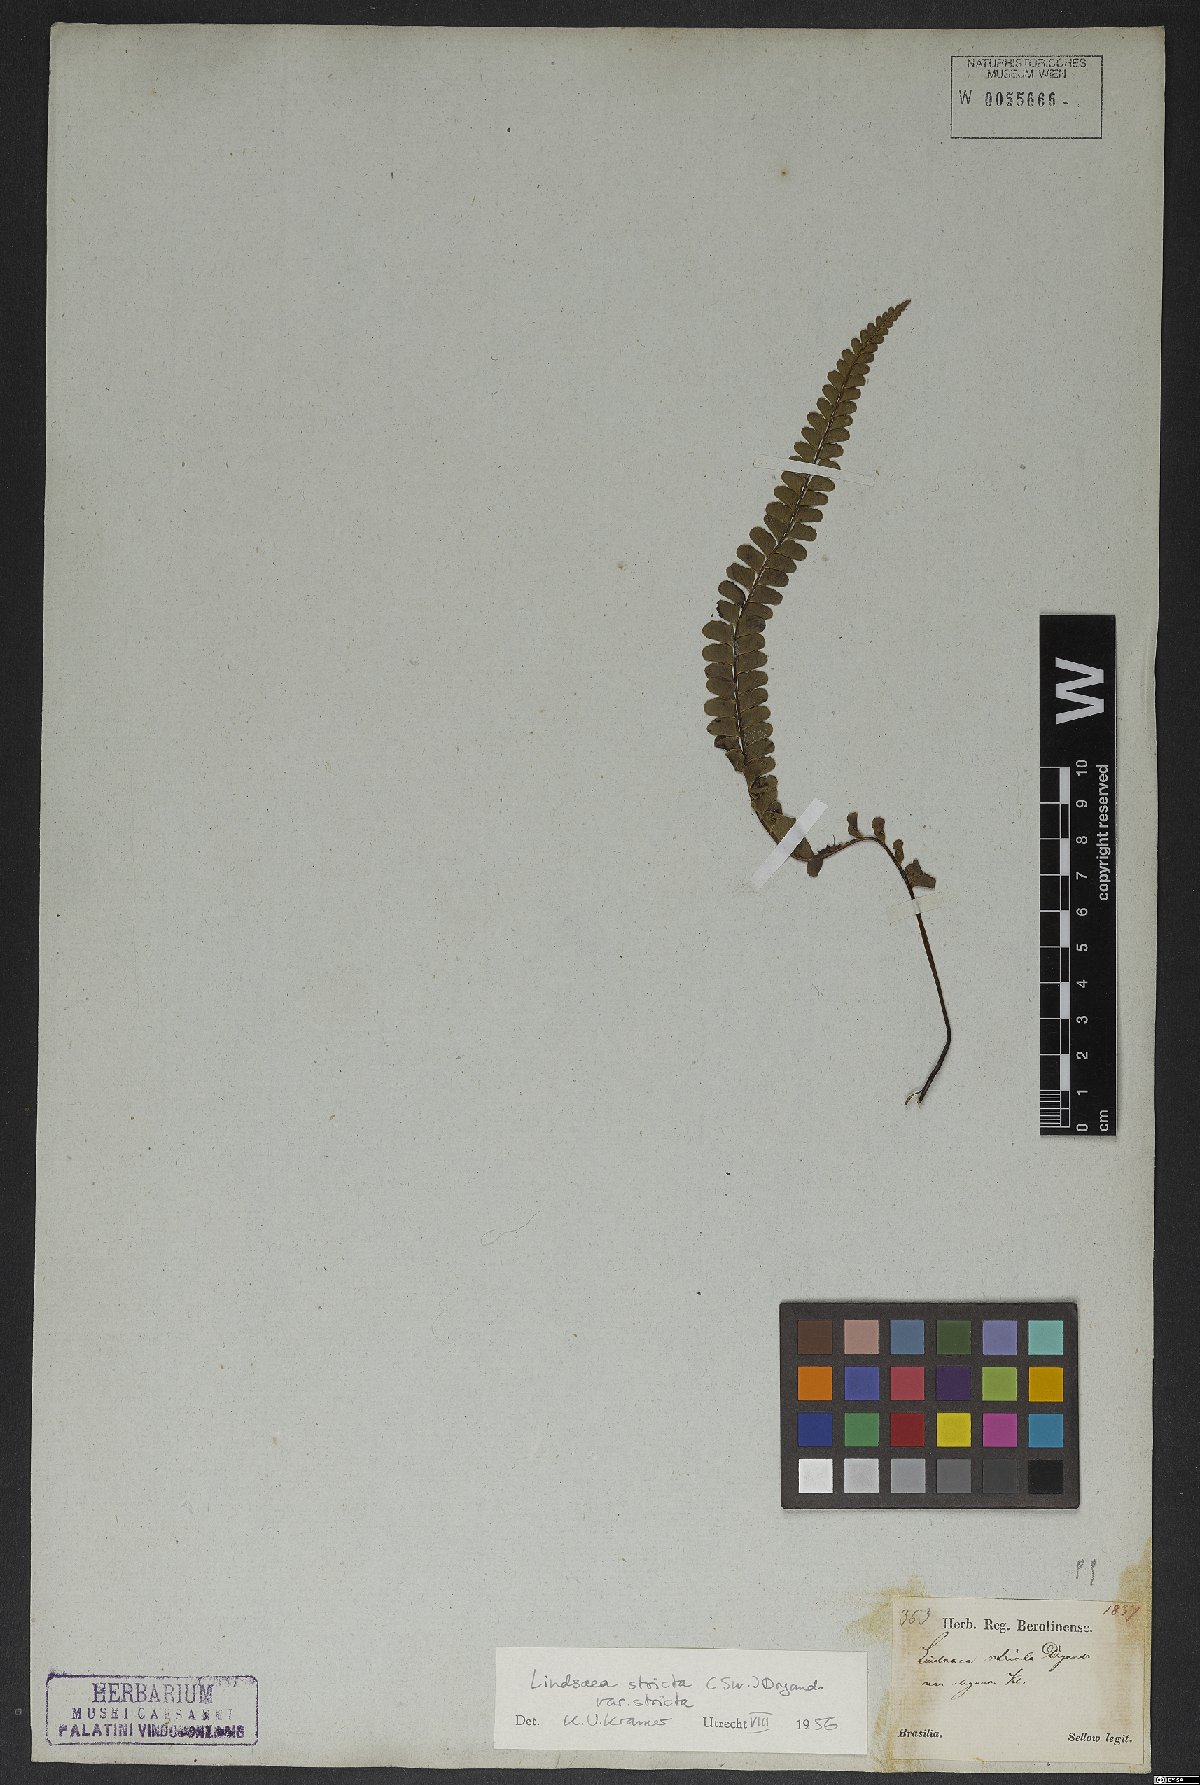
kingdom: Plantae
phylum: Tracheophyta
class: Polypodiopsida
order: Polypodiales
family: Lindsaeaceae
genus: Lindsaea
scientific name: Lindsaea stricta
